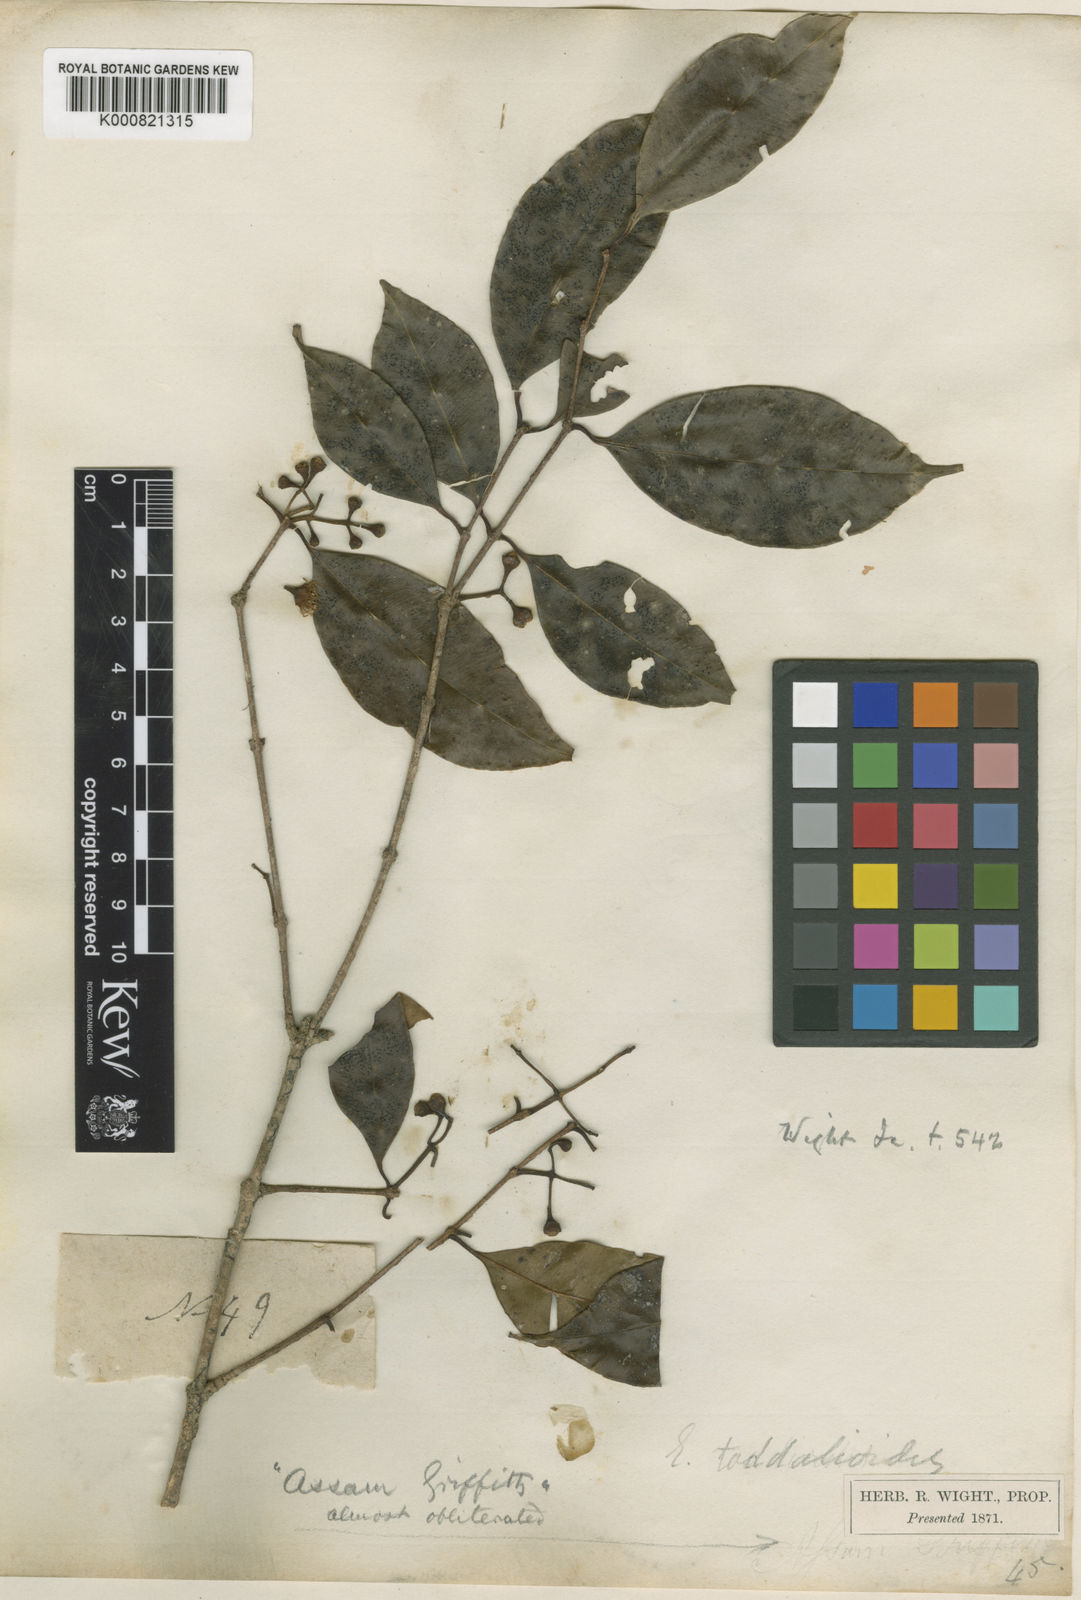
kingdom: Plantae
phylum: Tracheophyta
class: Magnoliopsida
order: Myrtales
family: Myrtaceae
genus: Syzygium
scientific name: Syzygium toddalioides
